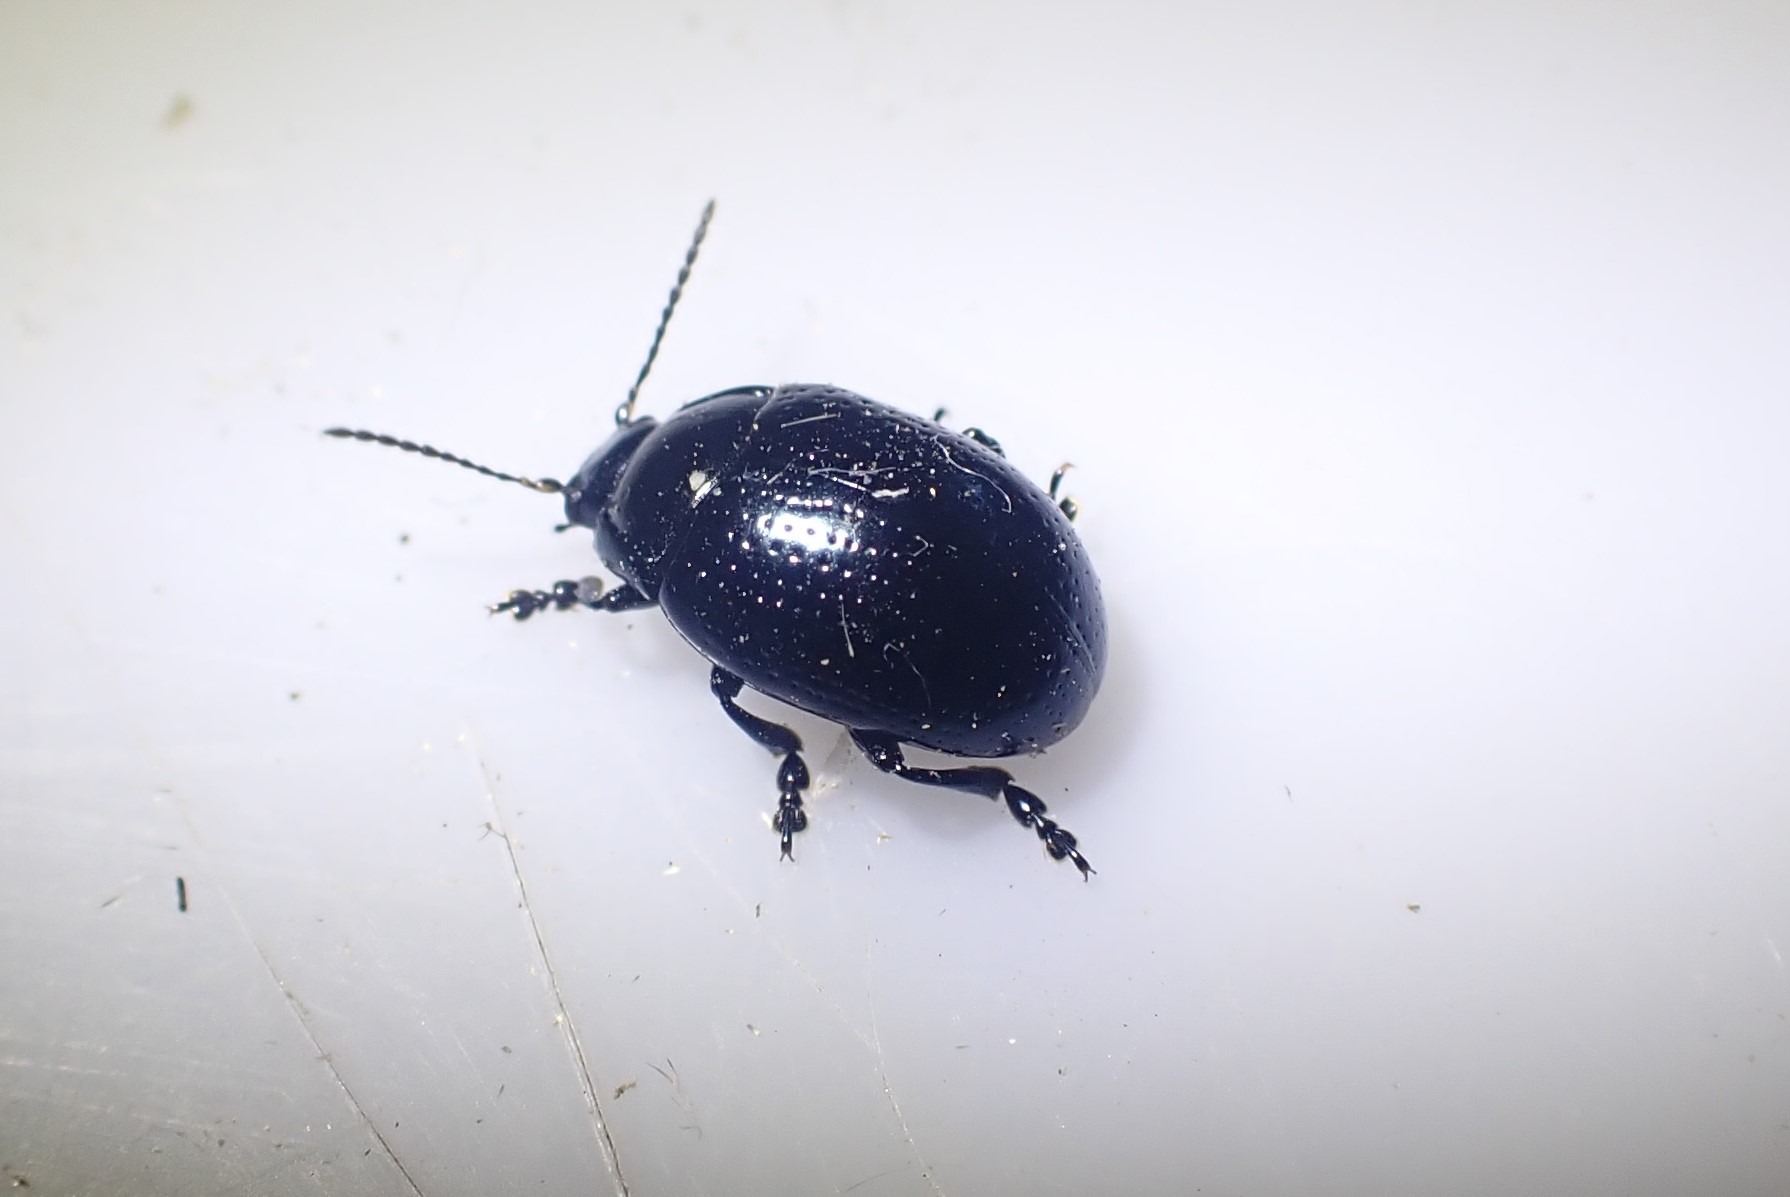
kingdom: Animalia
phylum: Arthropoda
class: Insecta
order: Coleoptera
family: Chrysomelidae
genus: Chrysolina
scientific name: Chrysolina oricalcia
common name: Rækkepunkteret guldbille
